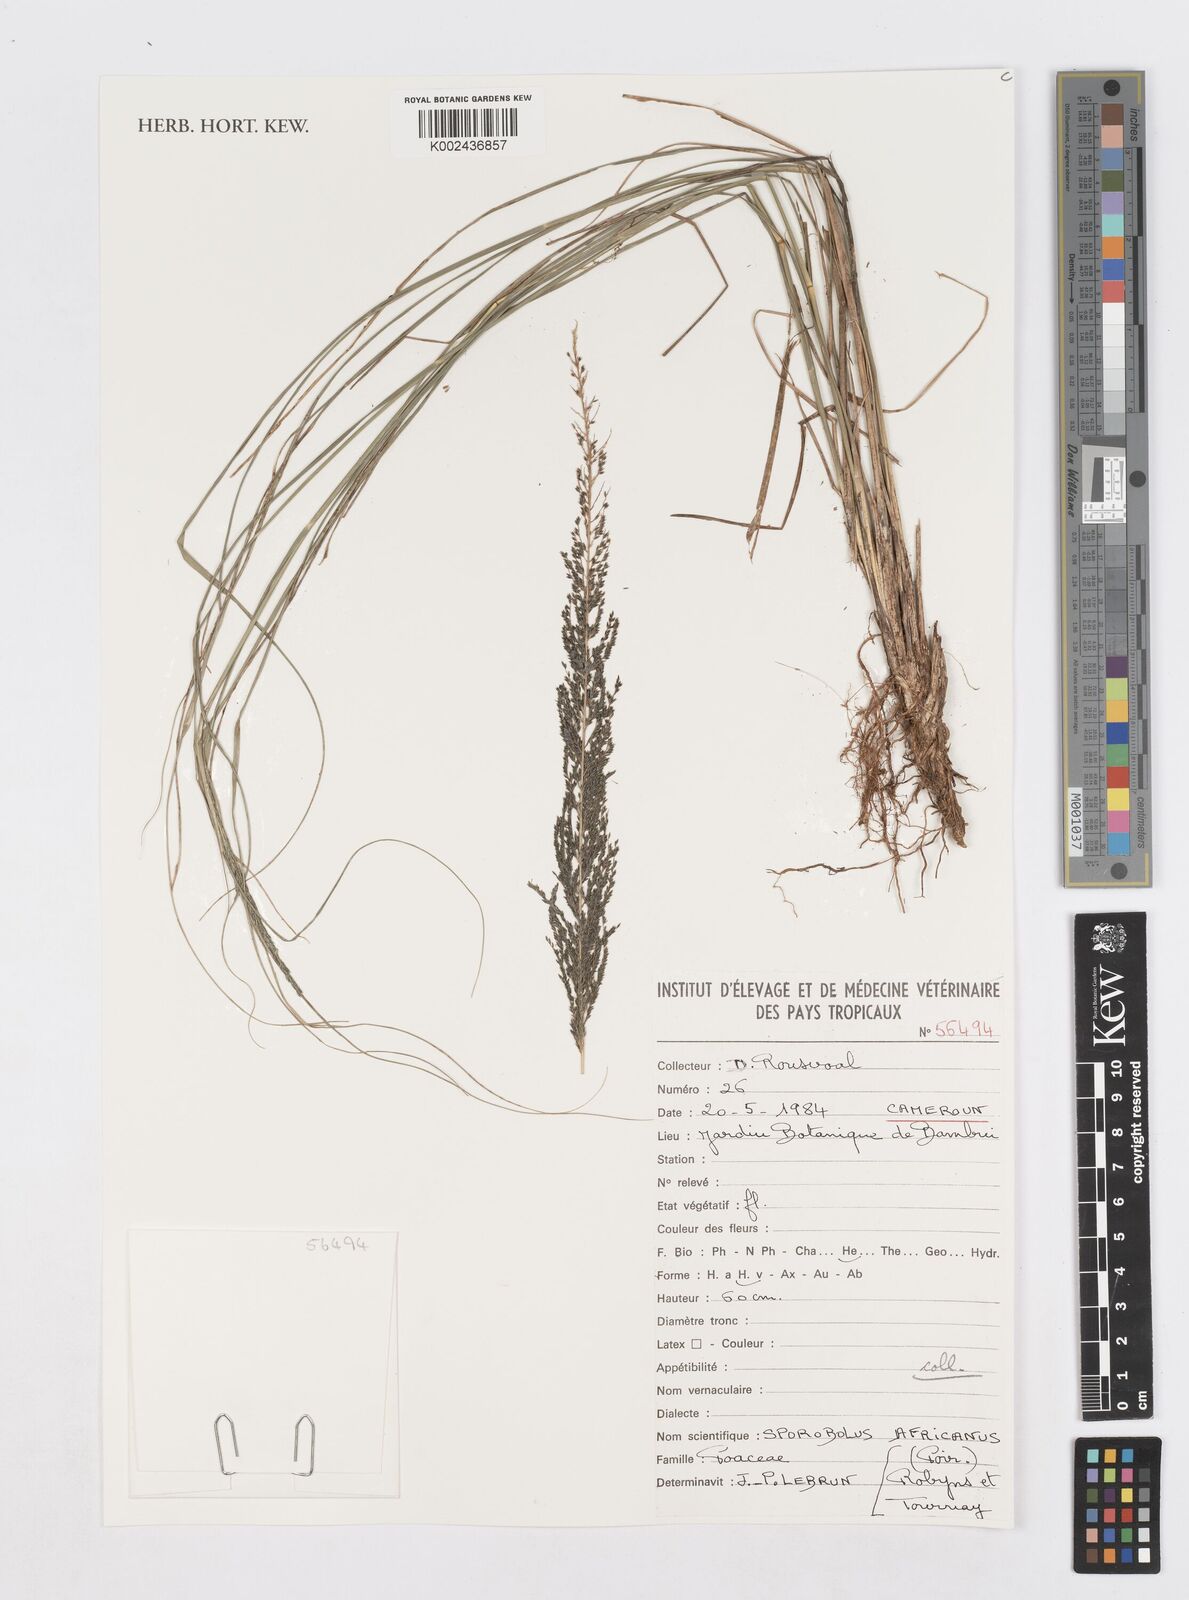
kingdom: Plantae
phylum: Tracheophyta
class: Liliopsida
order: Poales
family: Poaceae
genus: Sporobolus
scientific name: Sporobolus africanus
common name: African dropseed
